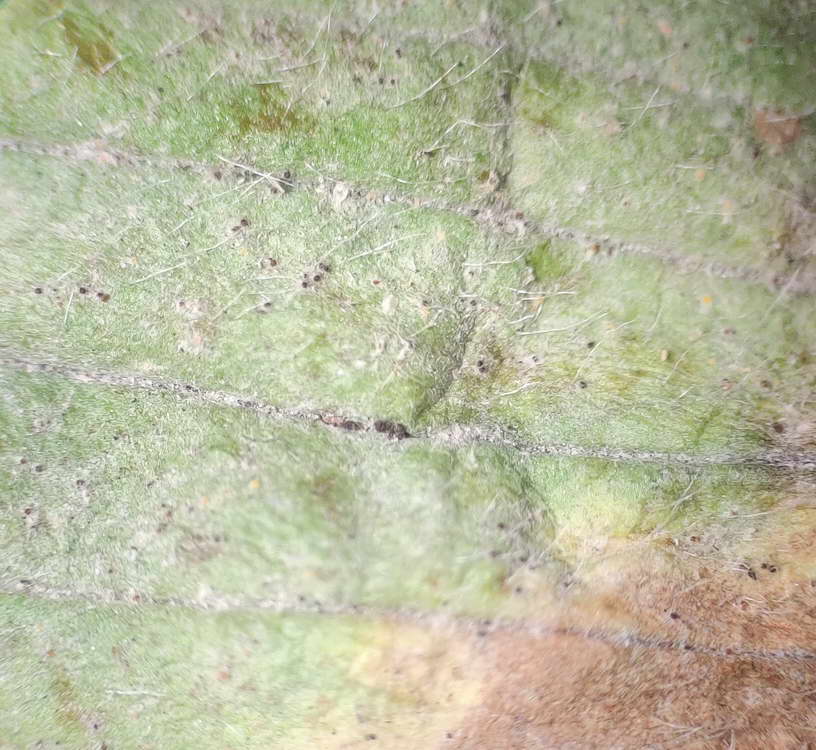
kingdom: Fungi
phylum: Ascomycota
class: Leotiomycetes
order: Helotiales
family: Erysiphaceae
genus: Golovinomyces
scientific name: Golovinomyces sordidus
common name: Plantain mildew
